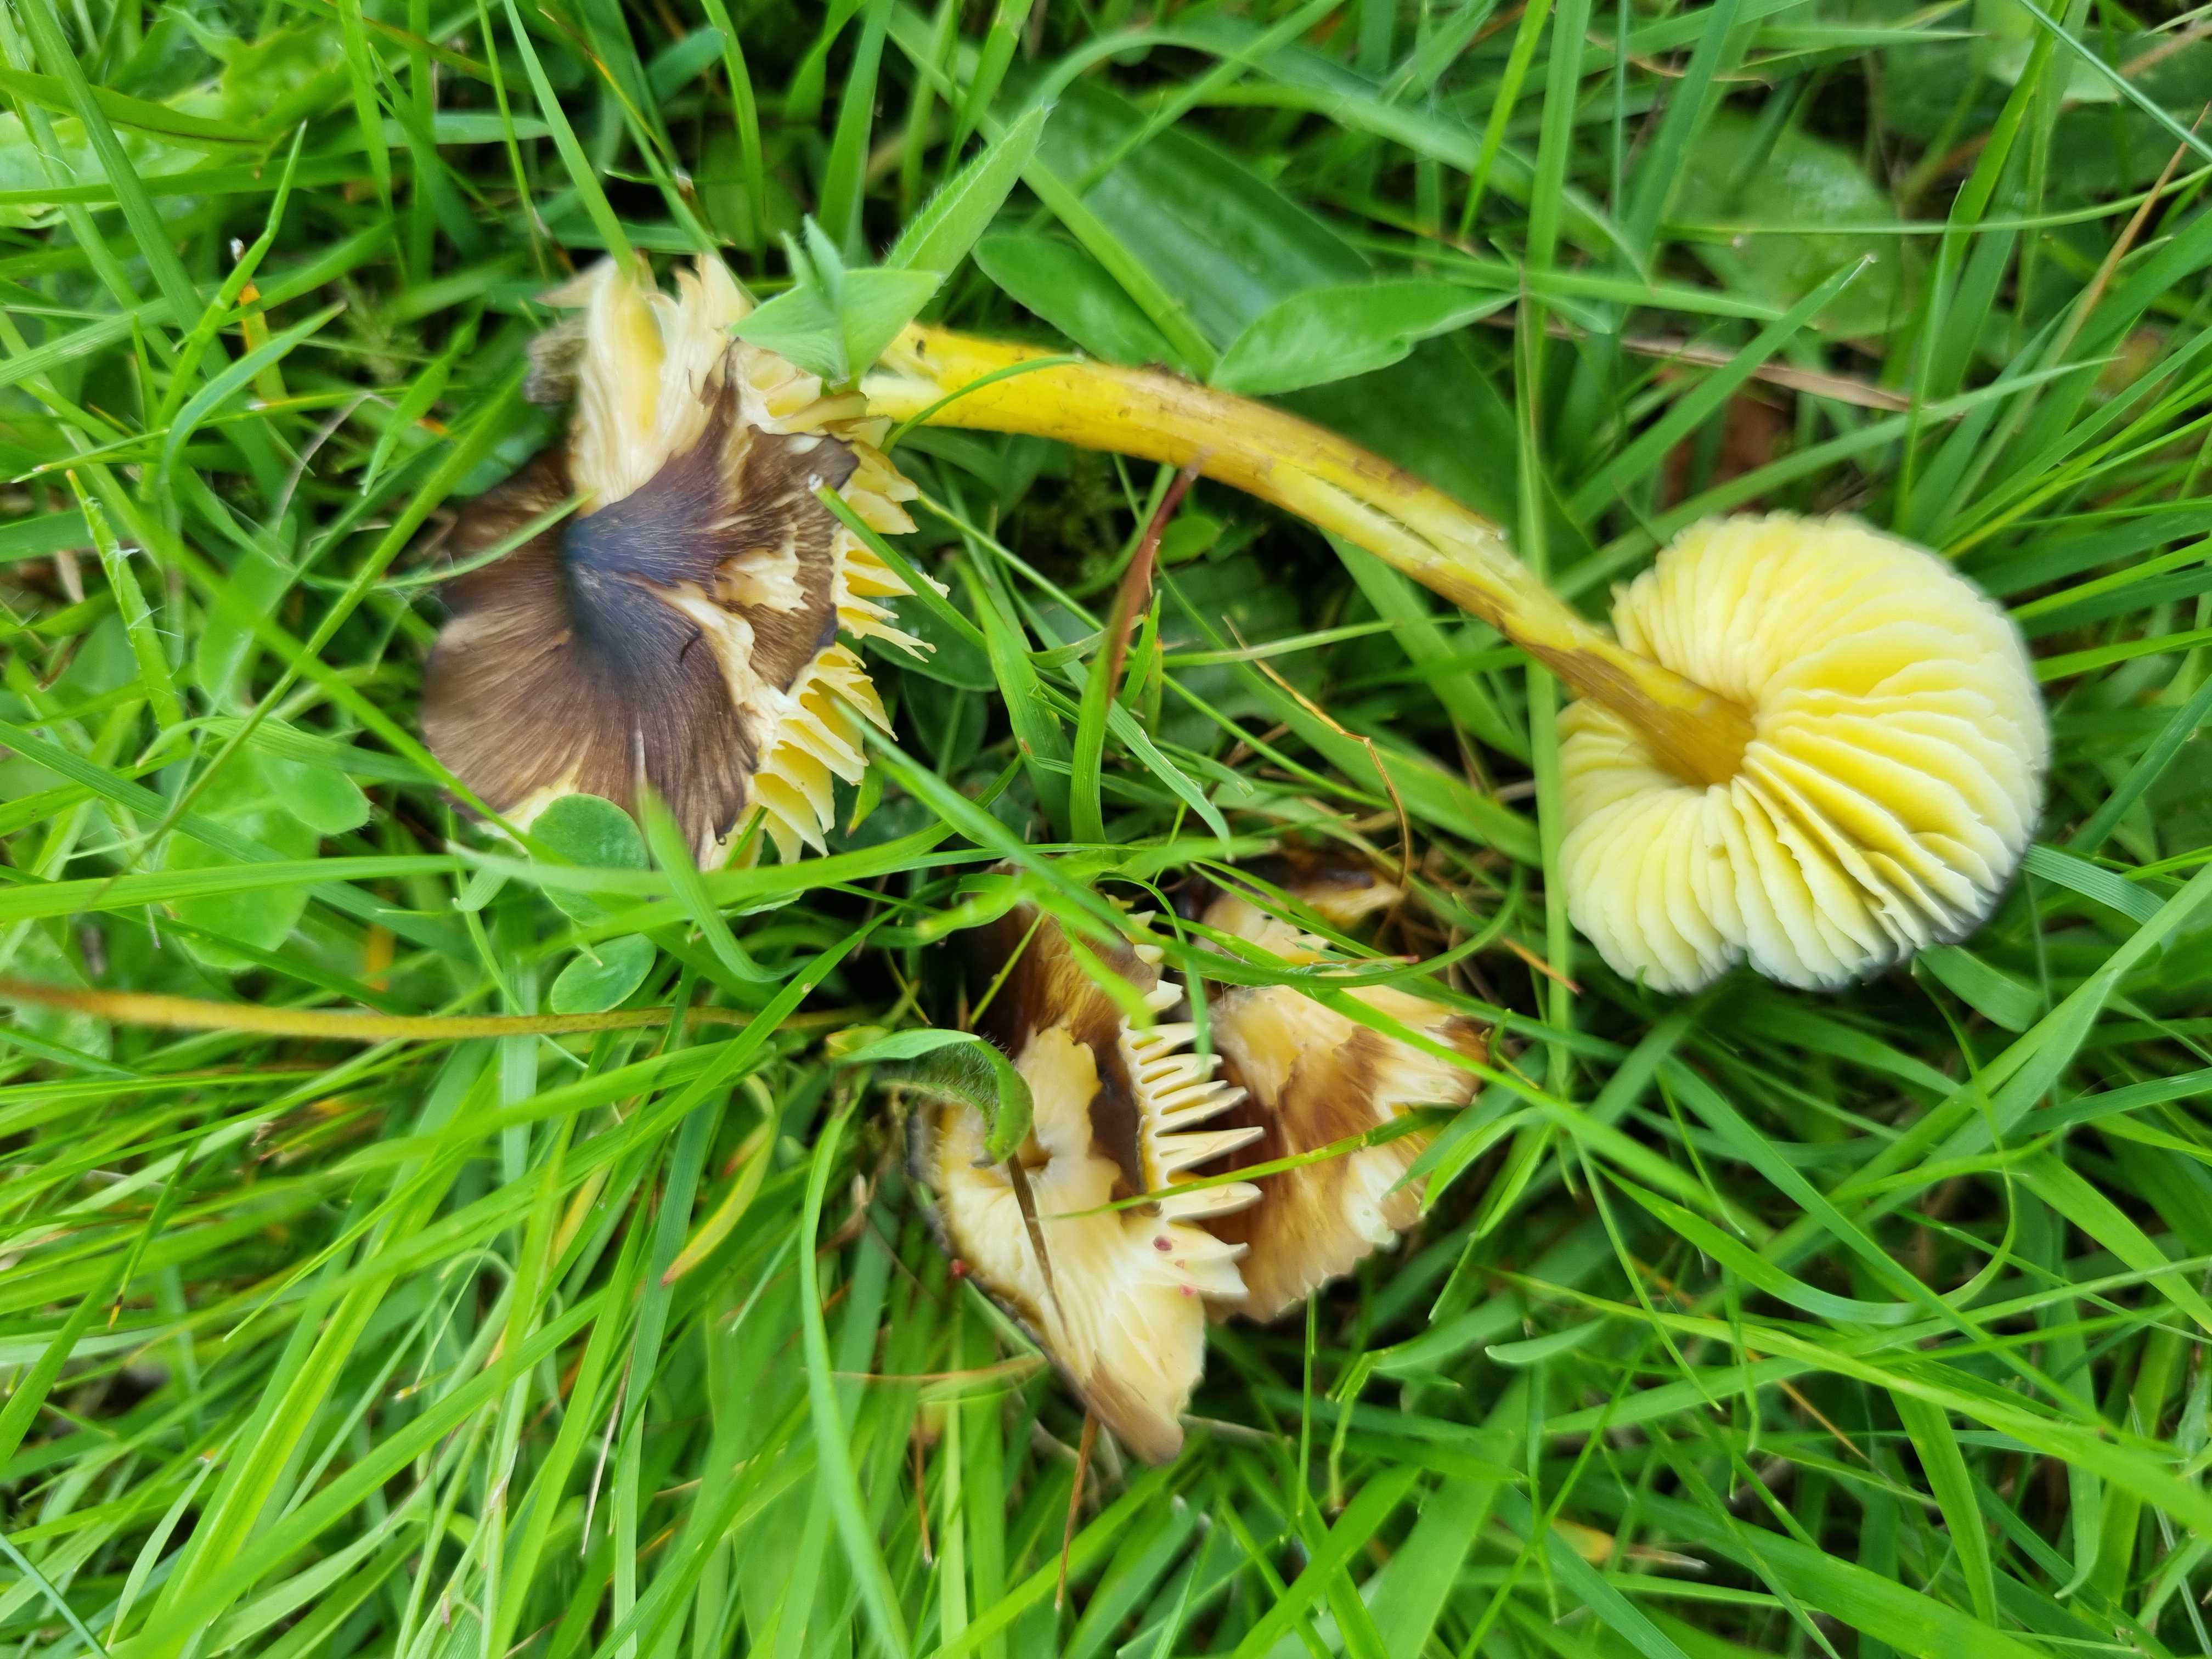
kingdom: Fungi
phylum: Basidiomycota
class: Agaricomycetes
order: Agaricales
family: Hygrophoraceae
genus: Hygrocybe
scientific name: Hygrocybe spadicea
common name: daddelbrun vokshat
